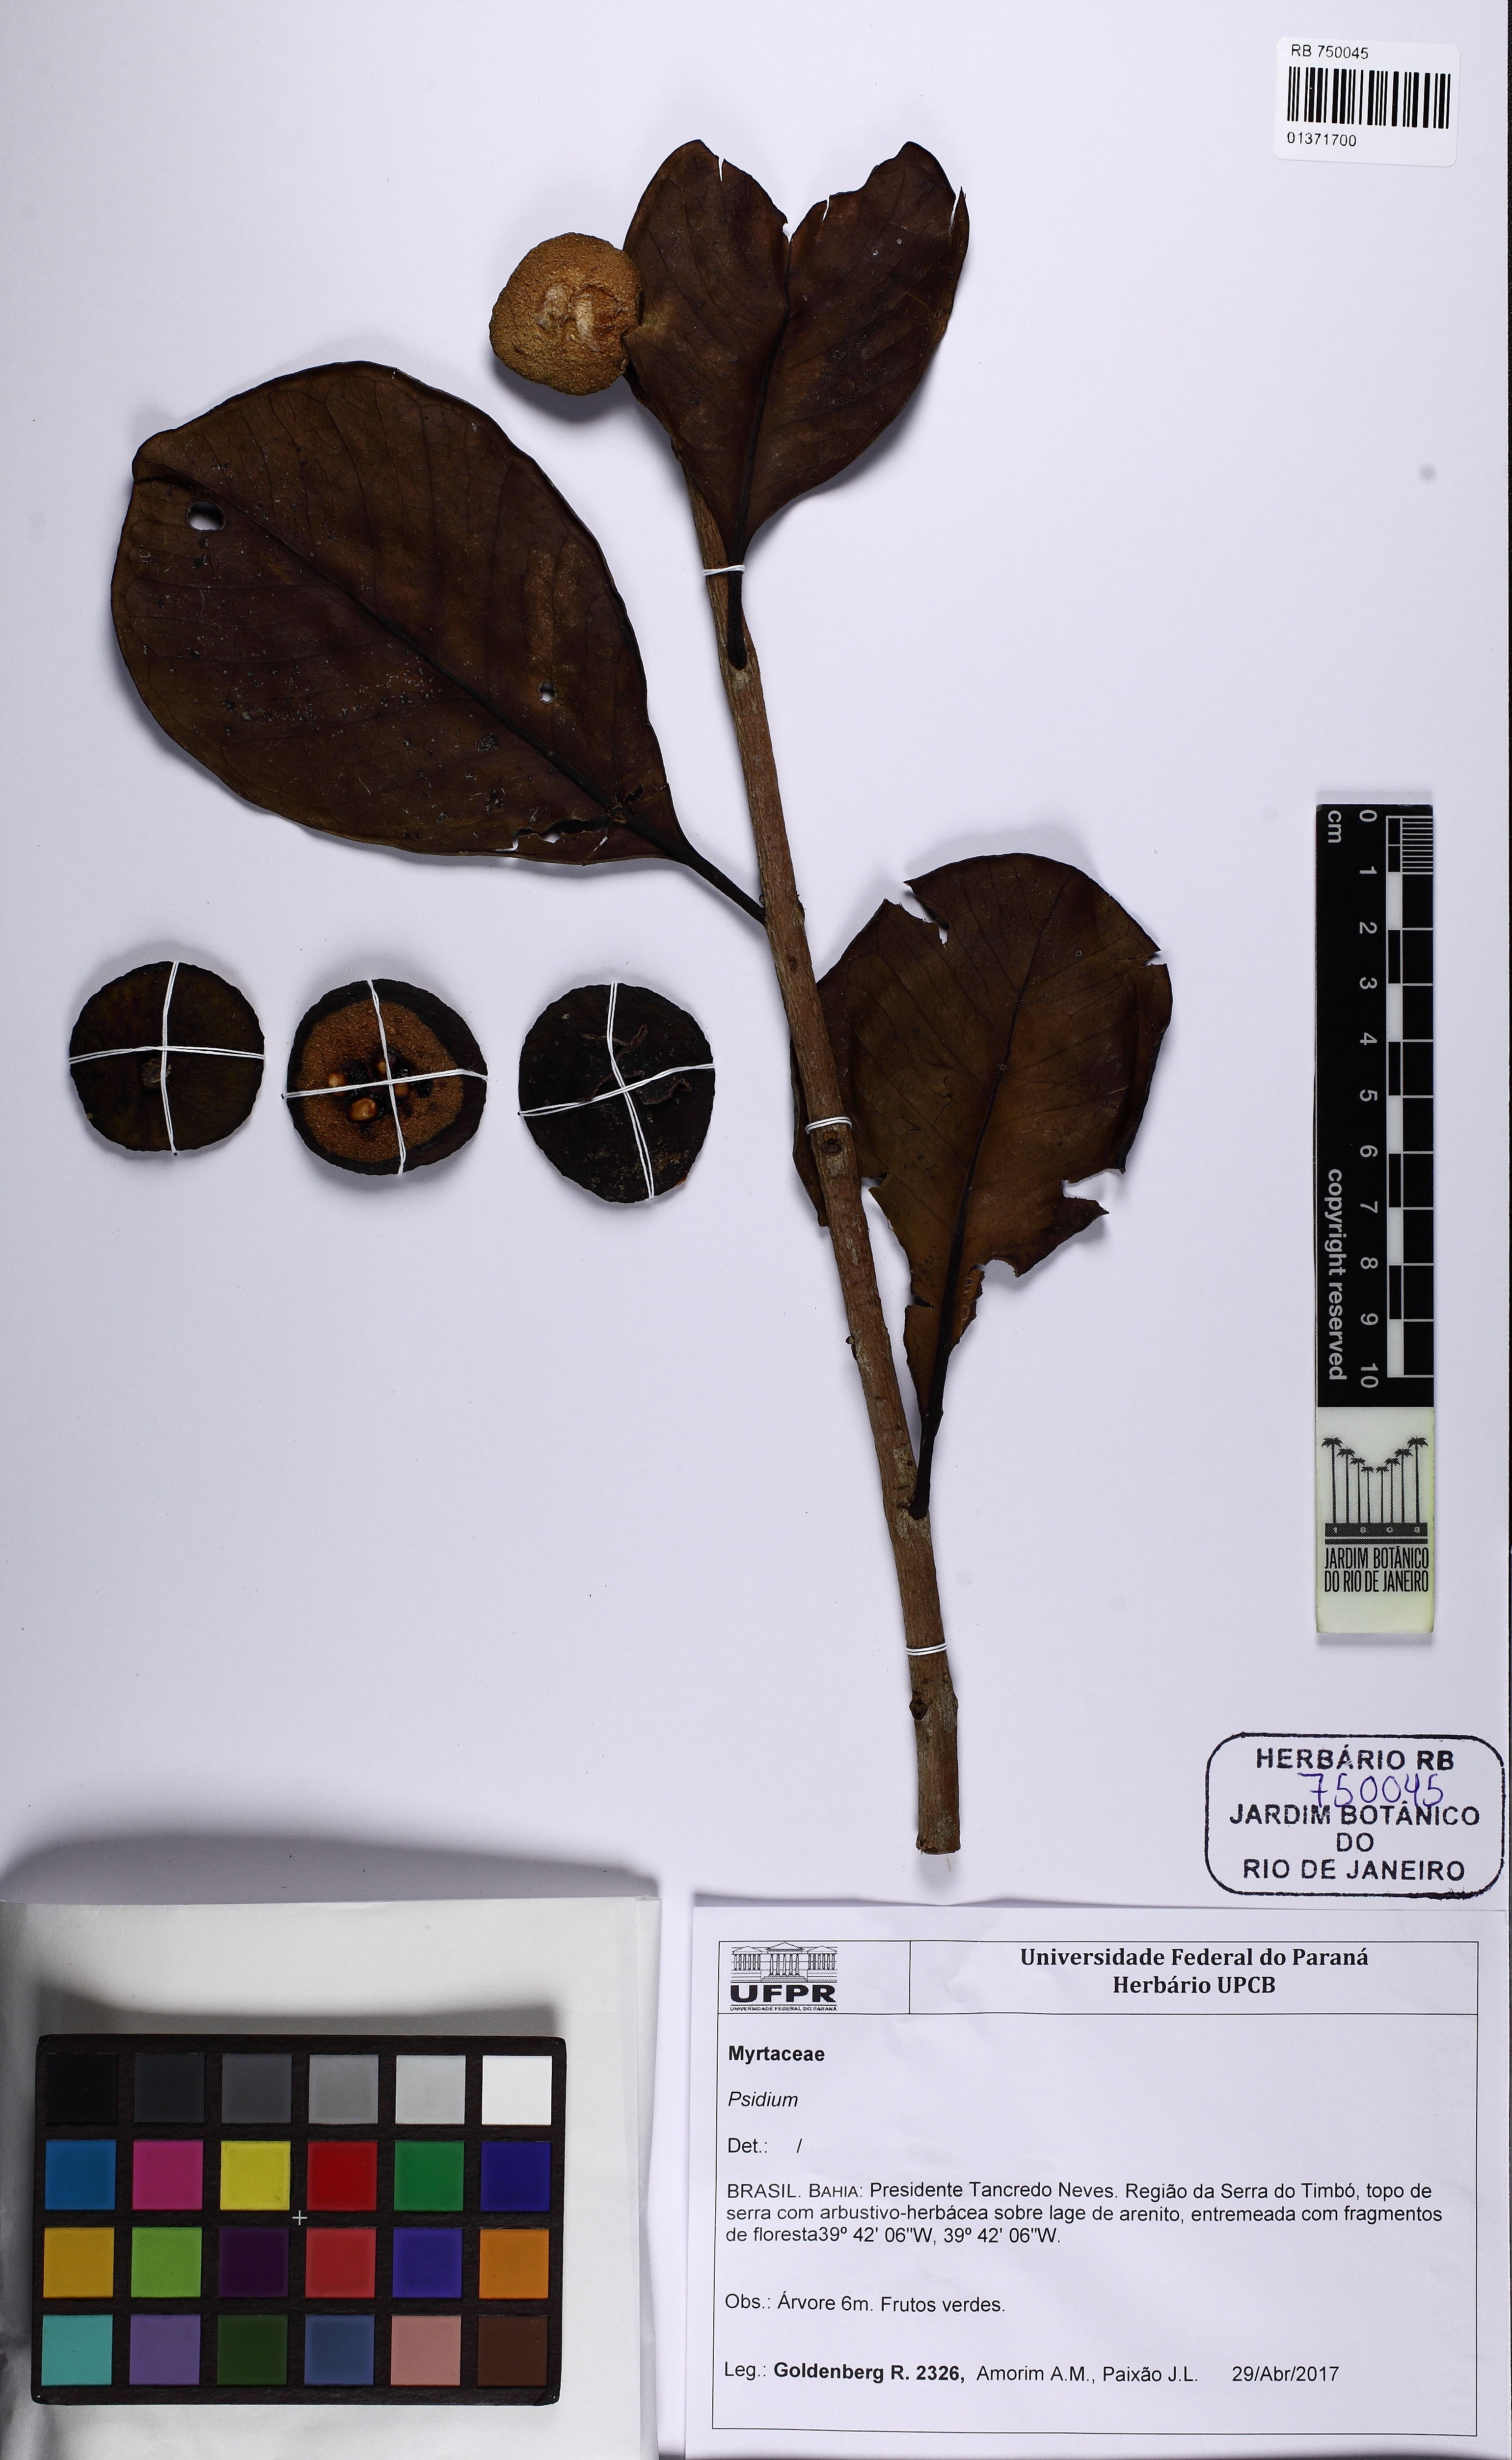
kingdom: Plantae
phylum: Tracheophyta
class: Magnoliopsida
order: Myrtales
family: Myrtaceae
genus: Psidium
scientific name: Psidium cattleianum
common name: Strawberry guava
